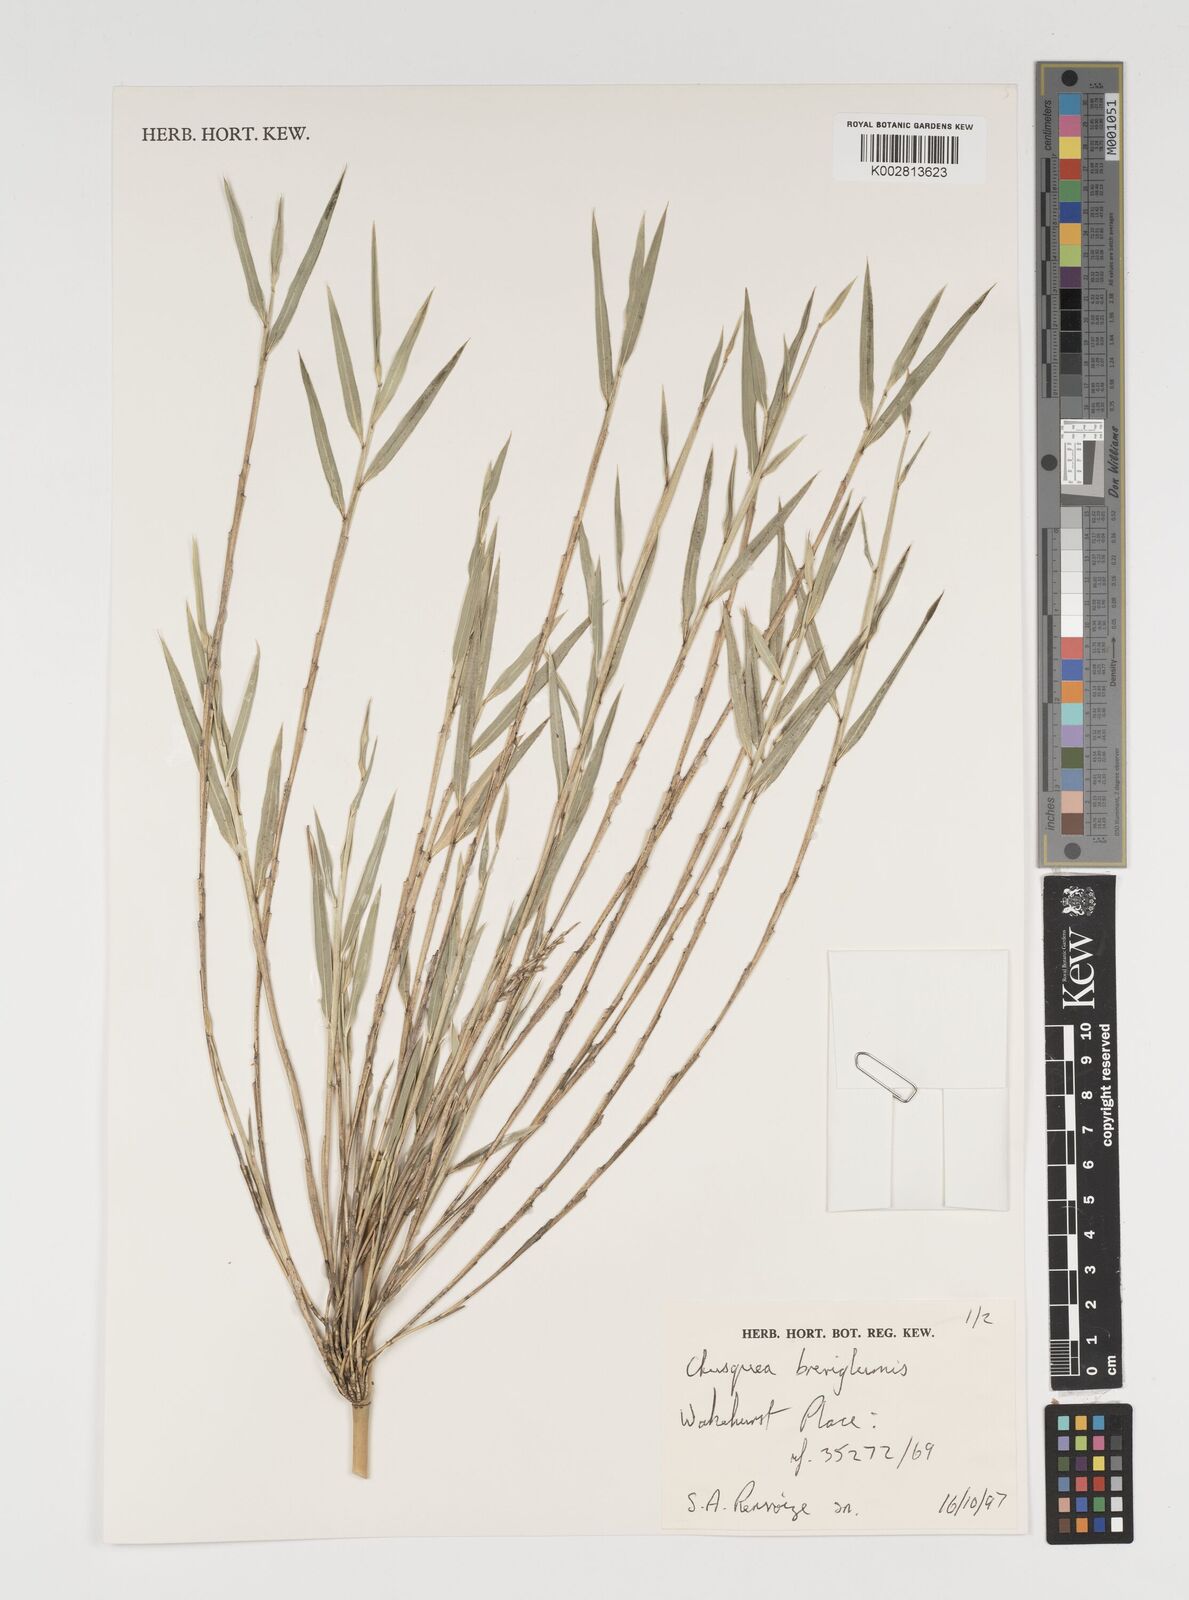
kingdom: Plantae
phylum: Tracheophyta
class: Liliopsida
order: Poales
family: Poaceae
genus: Chusquea
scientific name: Chusquea culeou
